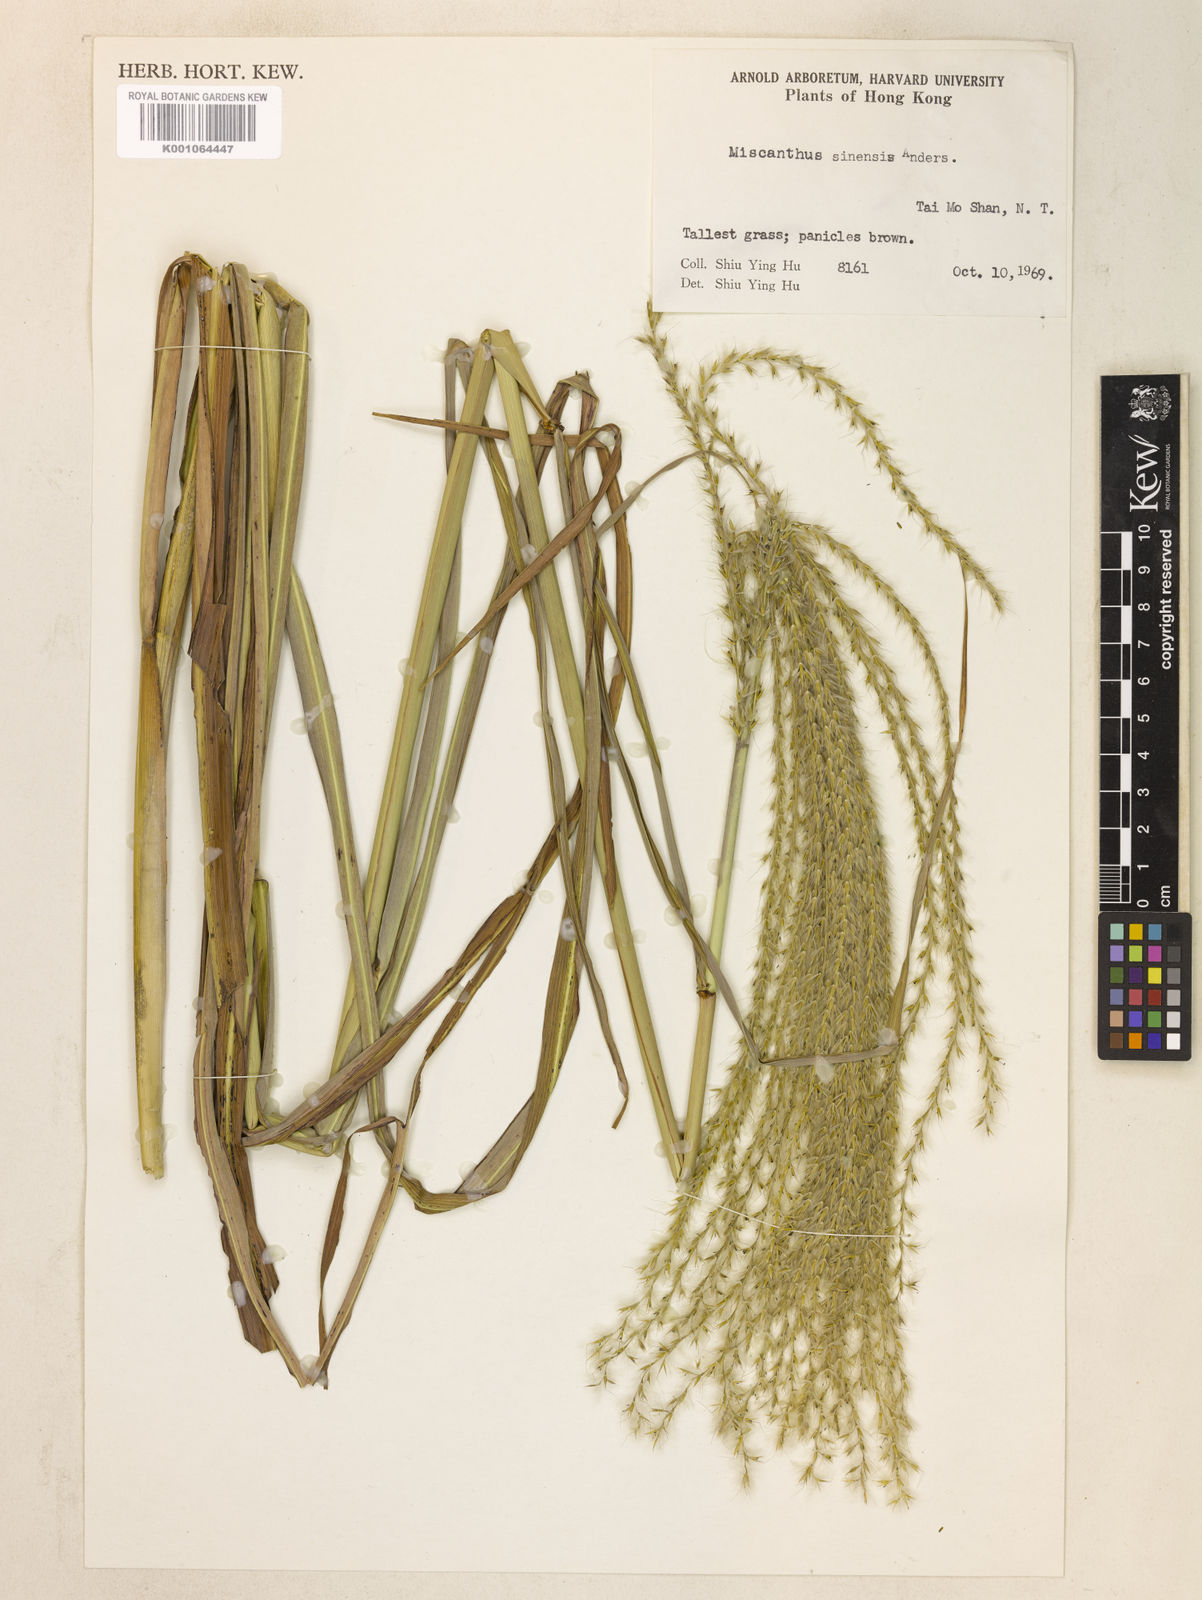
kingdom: Plantae
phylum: Tracheophyta
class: Liliopsida
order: Poales
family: Poaceae
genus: Miscanthus
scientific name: Miscanthus sinensis
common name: Chinese silvergrass
